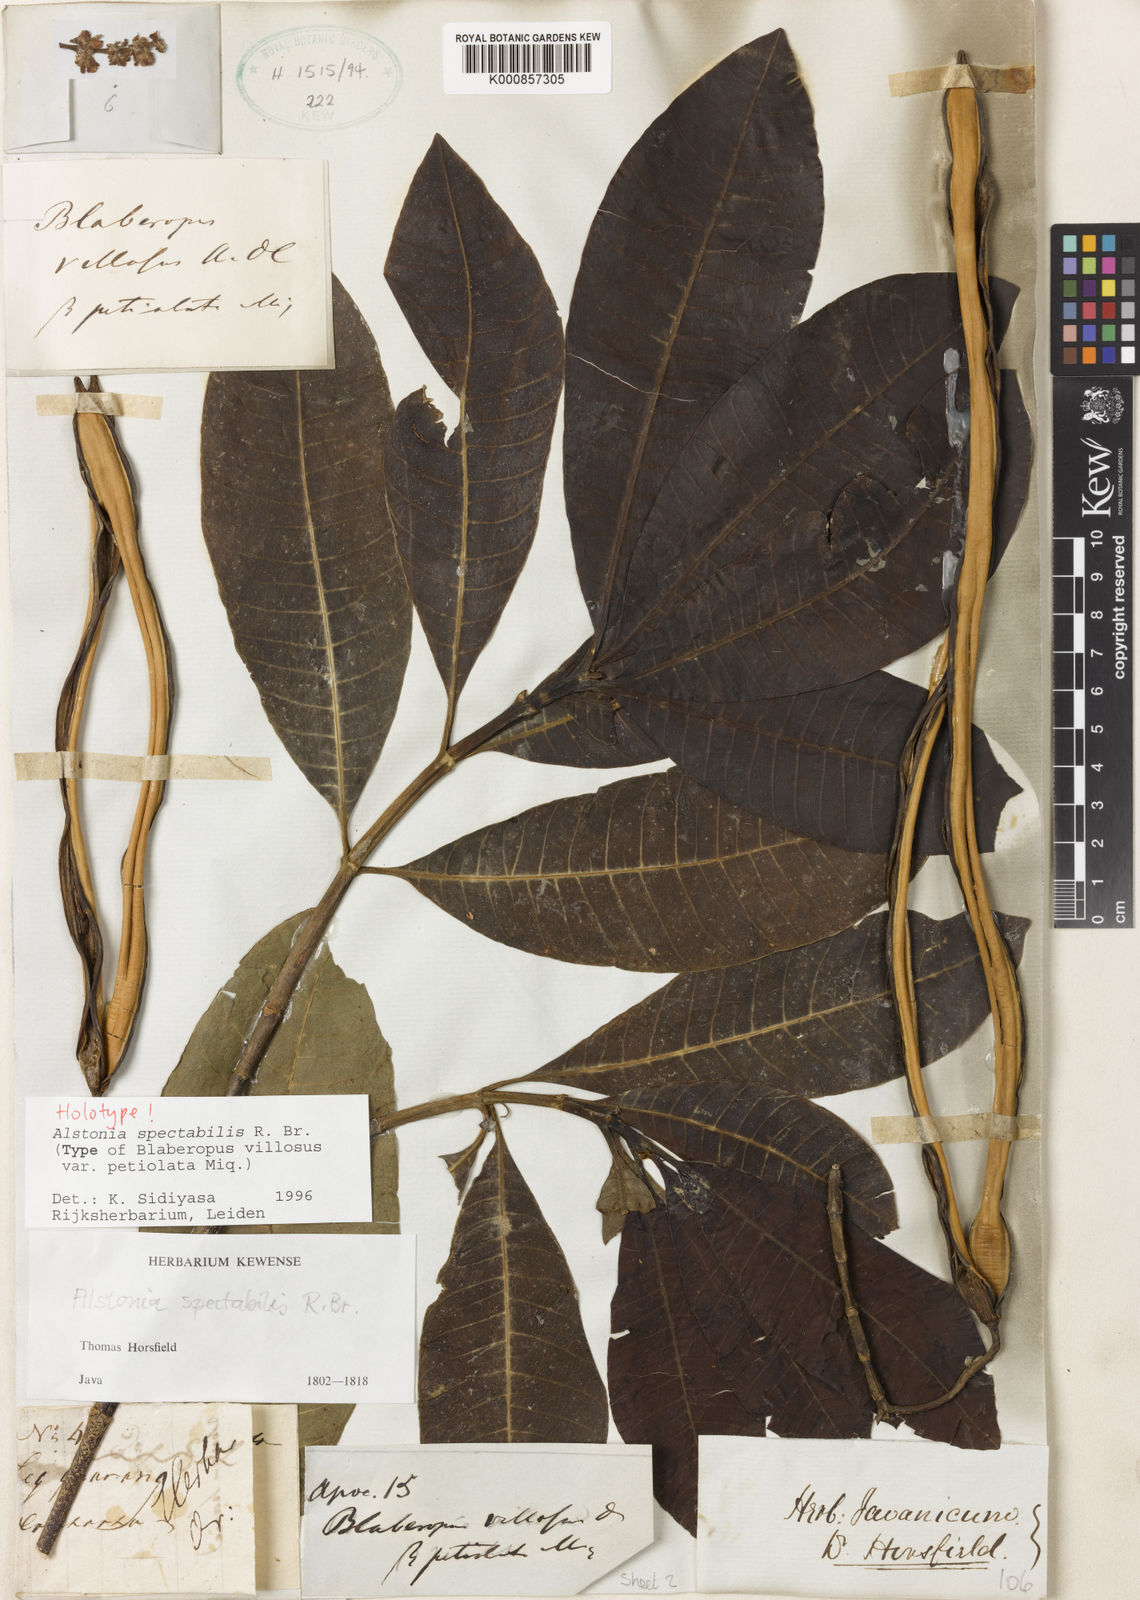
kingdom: Plantae
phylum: Tracheophyta
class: Magnoliopsida
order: Gentianales
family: Apocynaceae
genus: Alstonia
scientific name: Alstonia spectabilis
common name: Milky yellowwood
